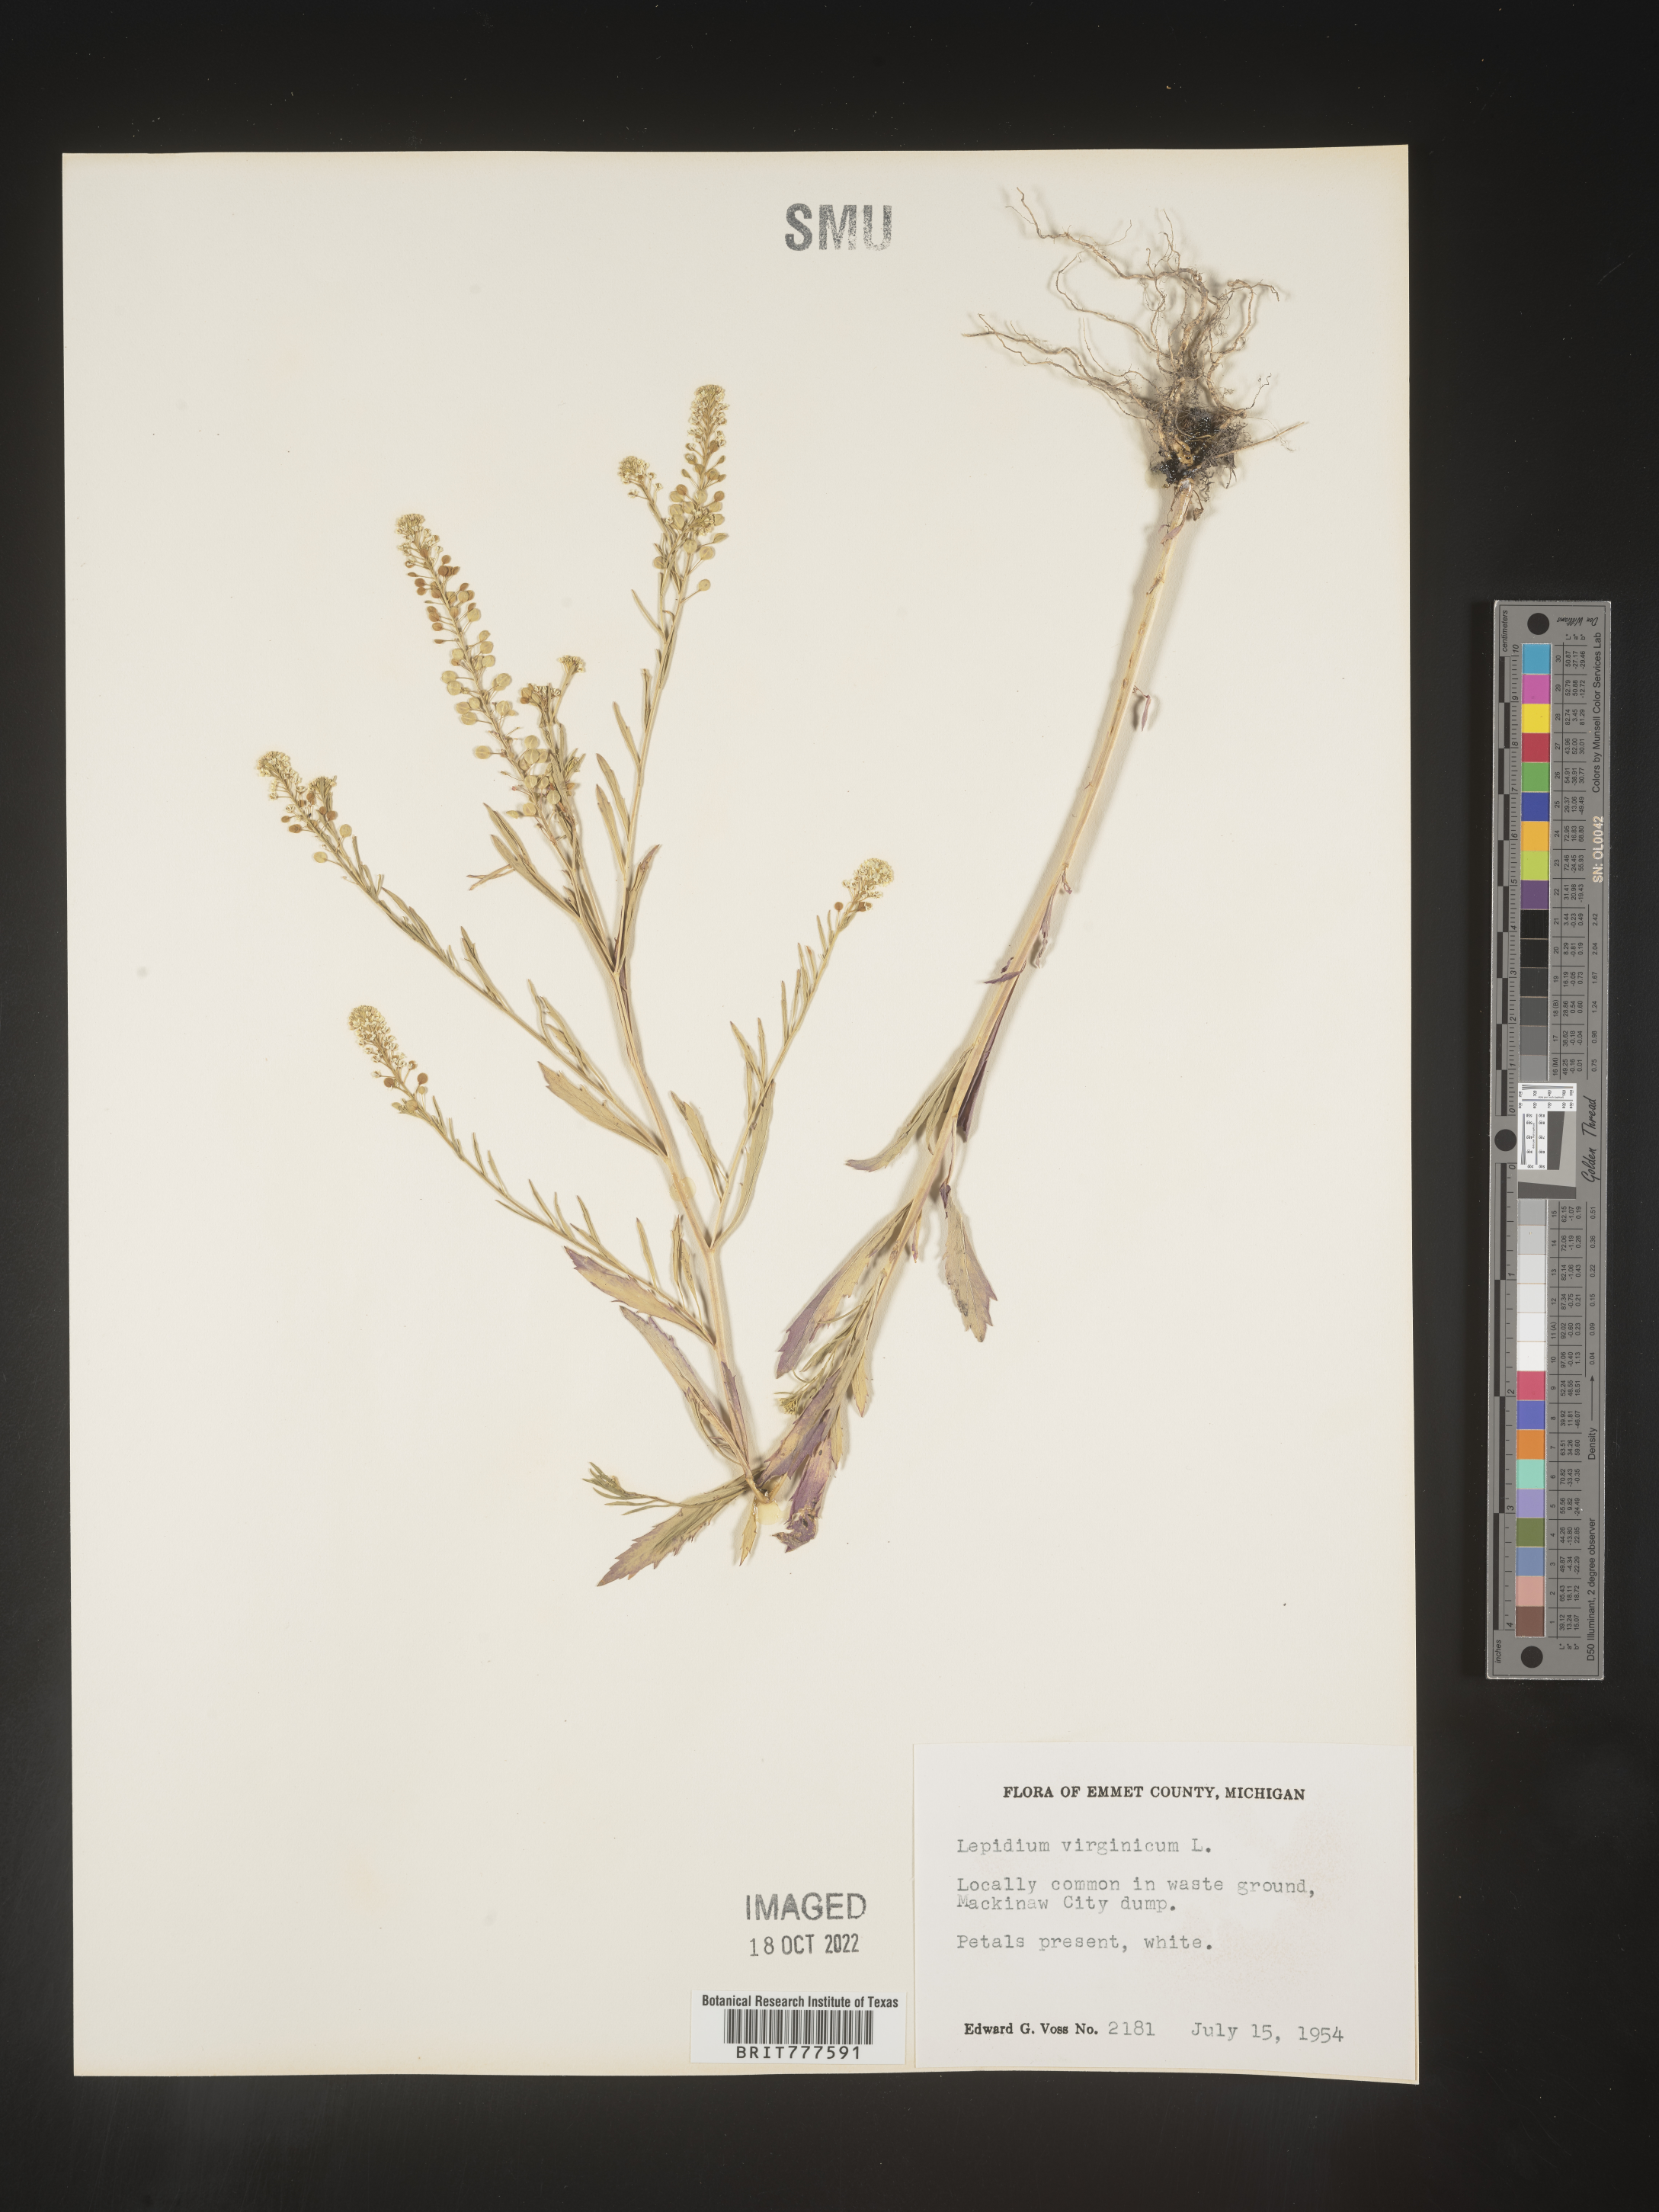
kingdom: Plantae
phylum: Tracheophyta
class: Magnoliopsida
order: Brassicales
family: Brassicaceae
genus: Lepidium
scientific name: Lepidium virginicum
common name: Least pepperwort
